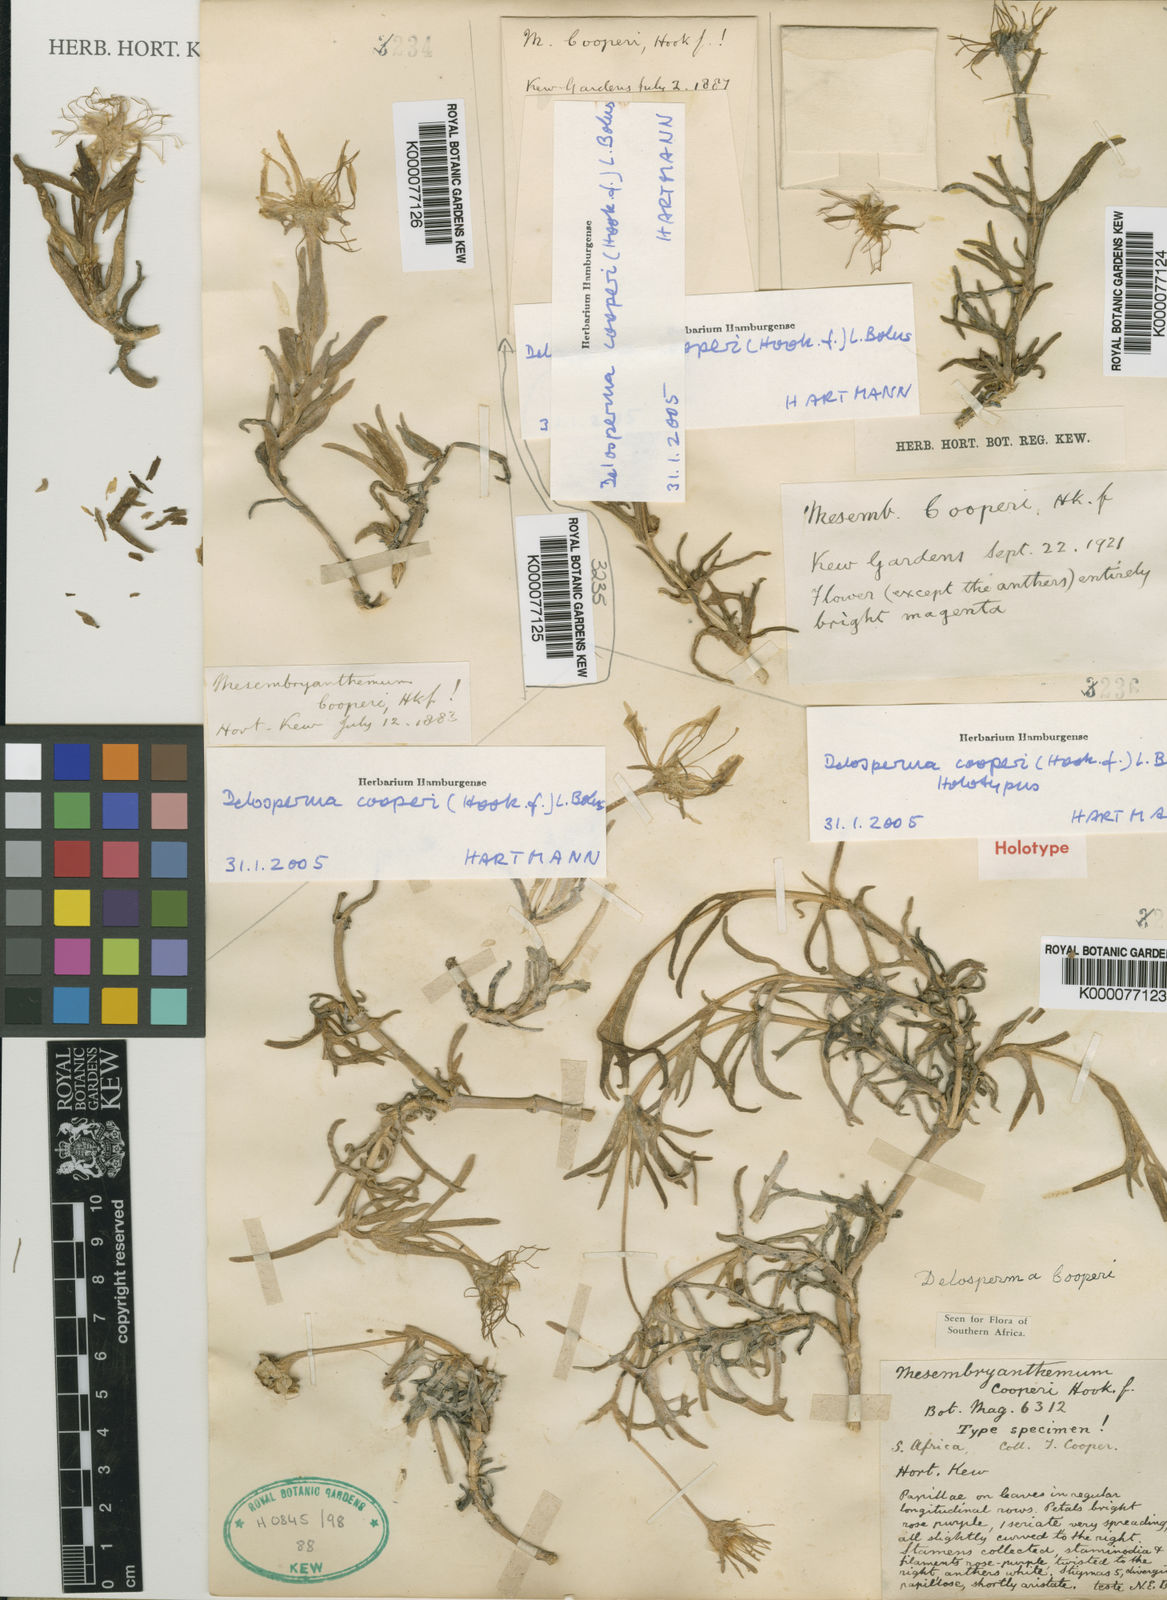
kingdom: Plantae
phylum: Tracheophyta
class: Magnoliopsida
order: Caryophyllales
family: Aizoaceae
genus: Delosperma
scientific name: Delosperma cooperi
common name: Hardy iceplant
